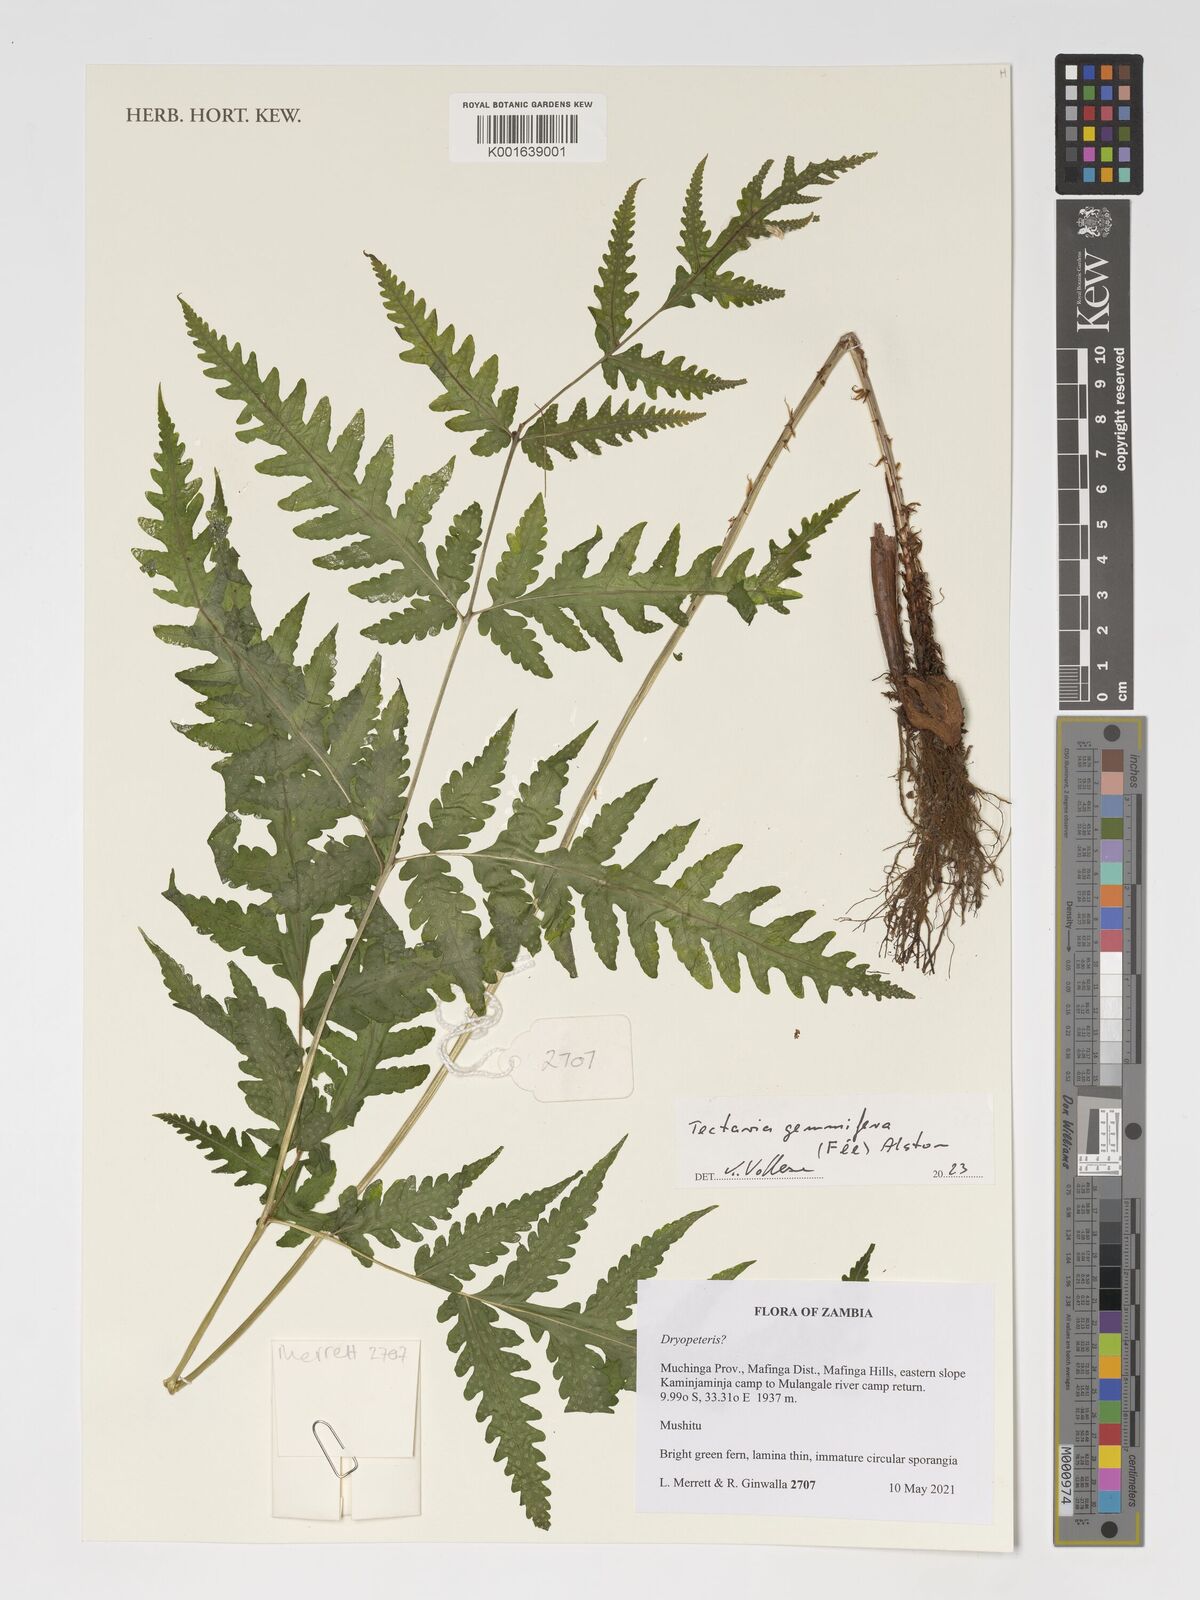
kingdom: Plantae
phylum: Tracheophyta
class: Polypodiopsida
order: Polypodiales
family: Tectariaceae
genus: Tectaria
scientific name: Tectaria gemmifera
